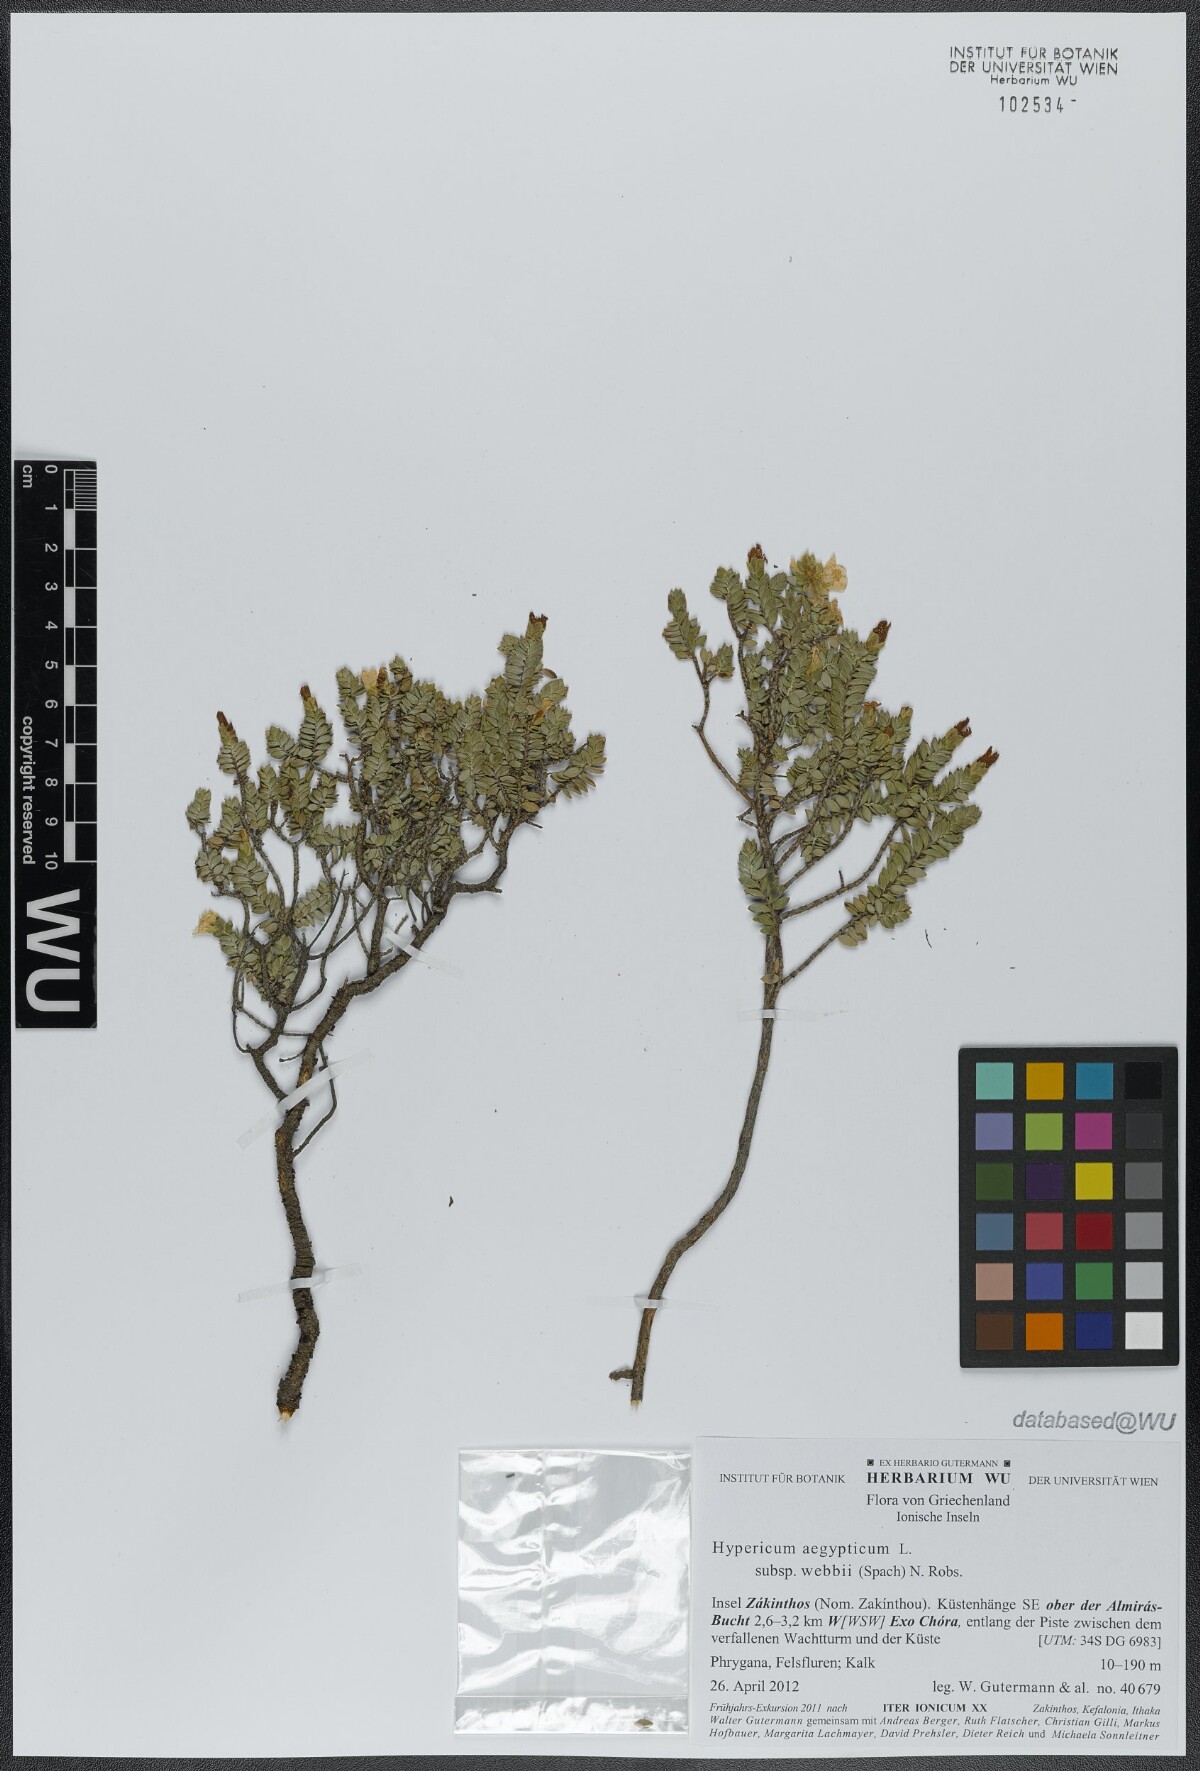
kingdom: Plantae
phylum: Tracheophyta
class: Magnoliopsida
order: Malpighiales
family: Hypericaceae
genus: Hypericum
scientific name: Hypericum aegypticum
